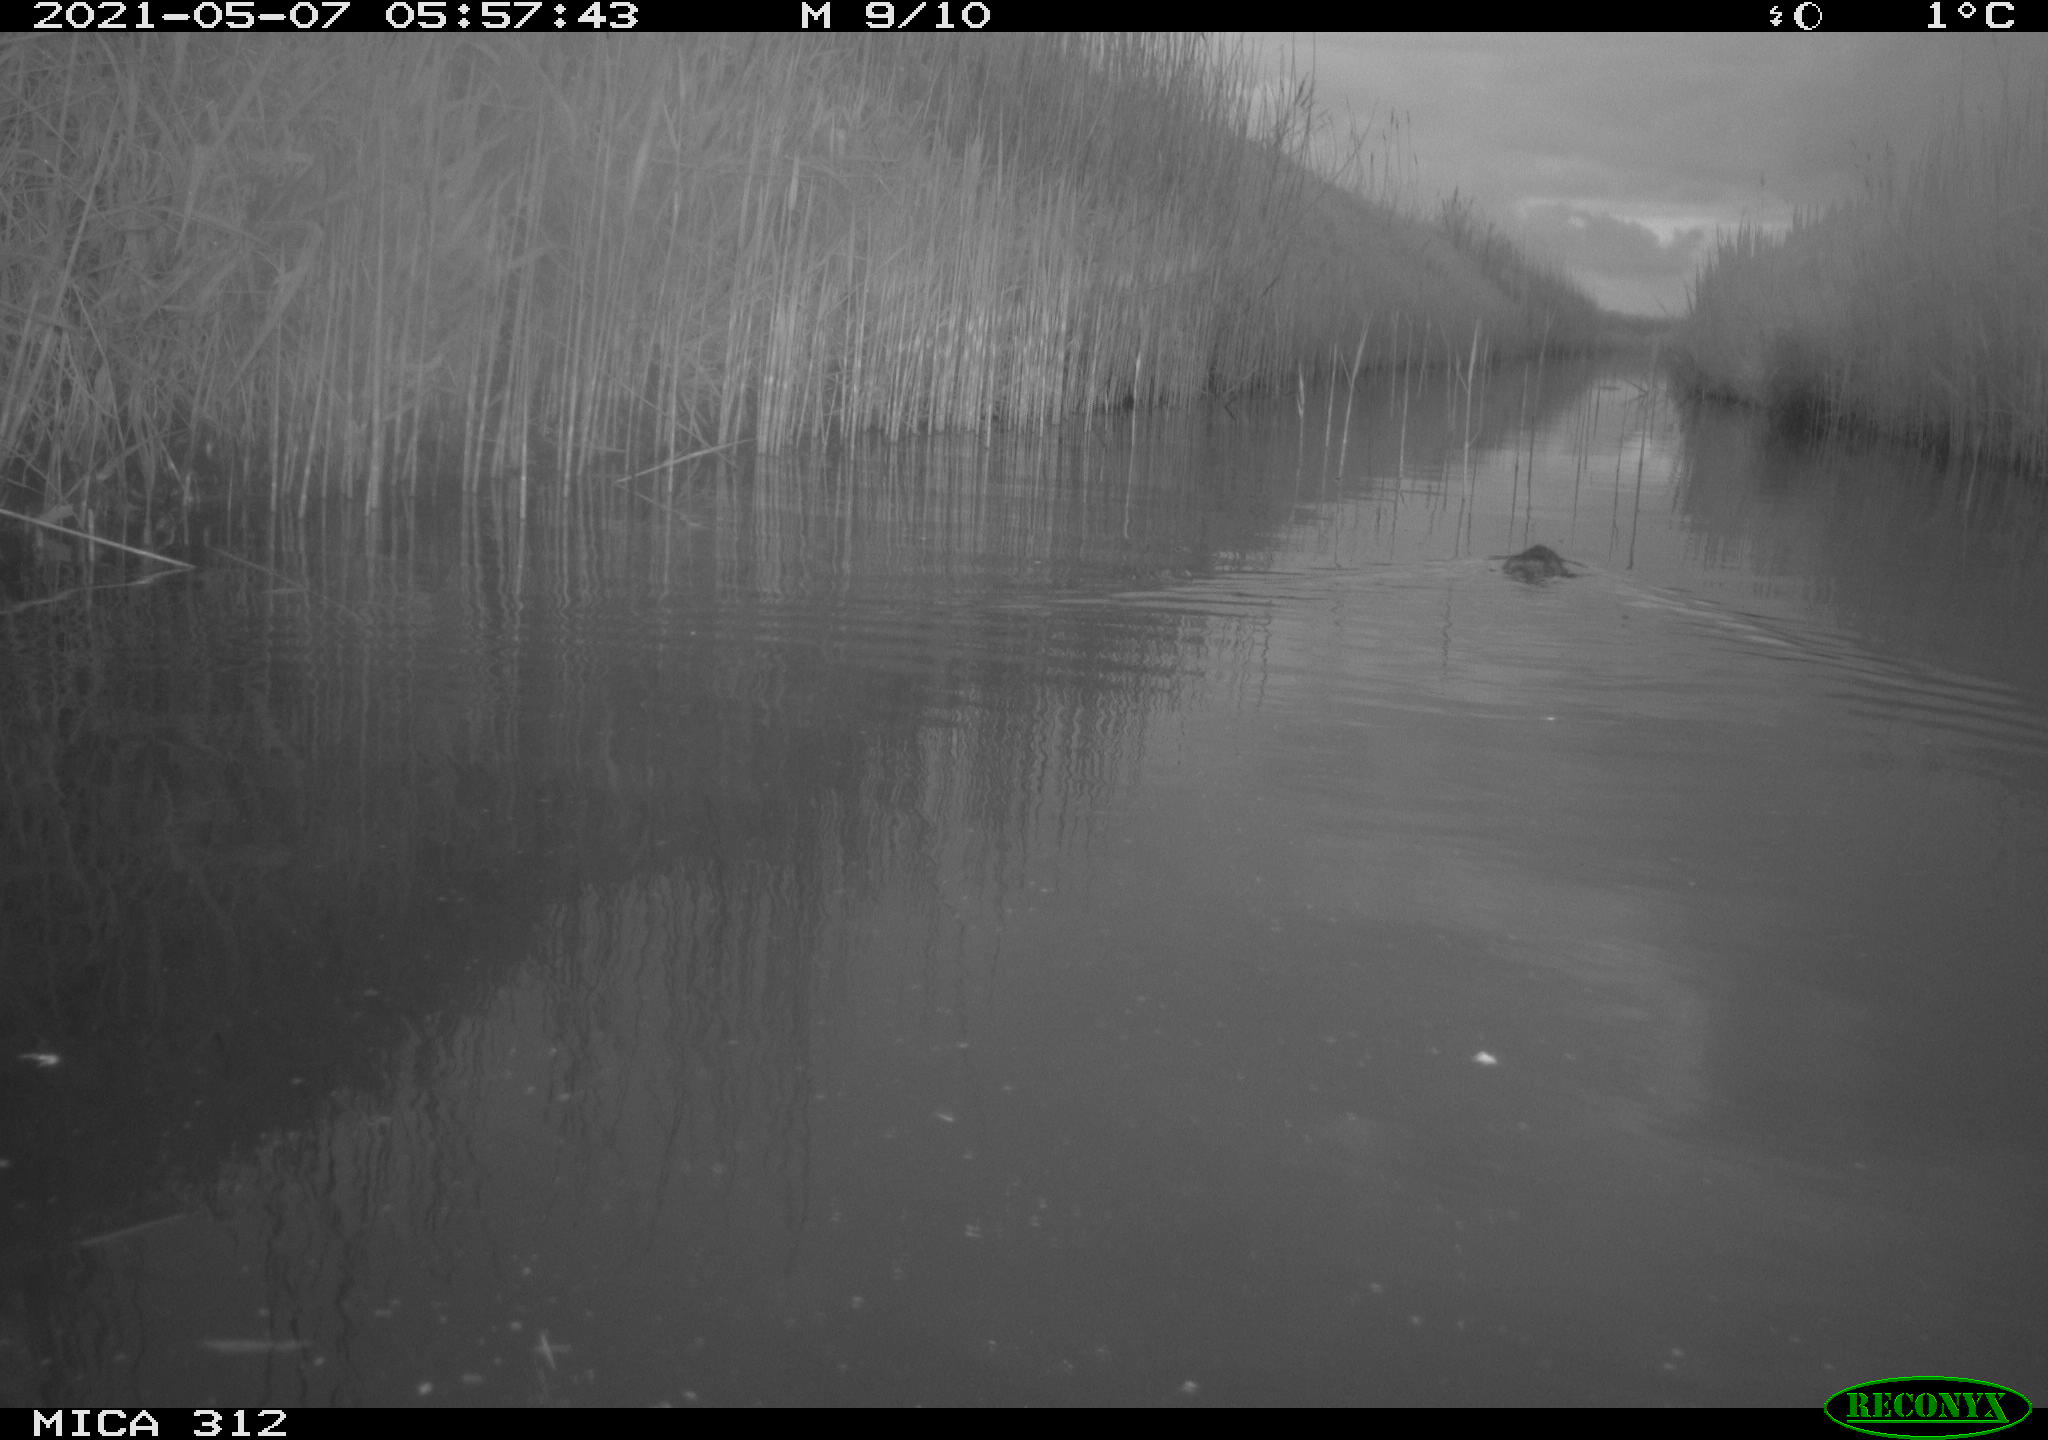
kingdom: Animalia
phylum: Chordata
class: Mammalia
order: Rodentia
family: Cricetidae
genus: Ondatra
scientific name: Ondatra zibethicus
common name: Muskrat
